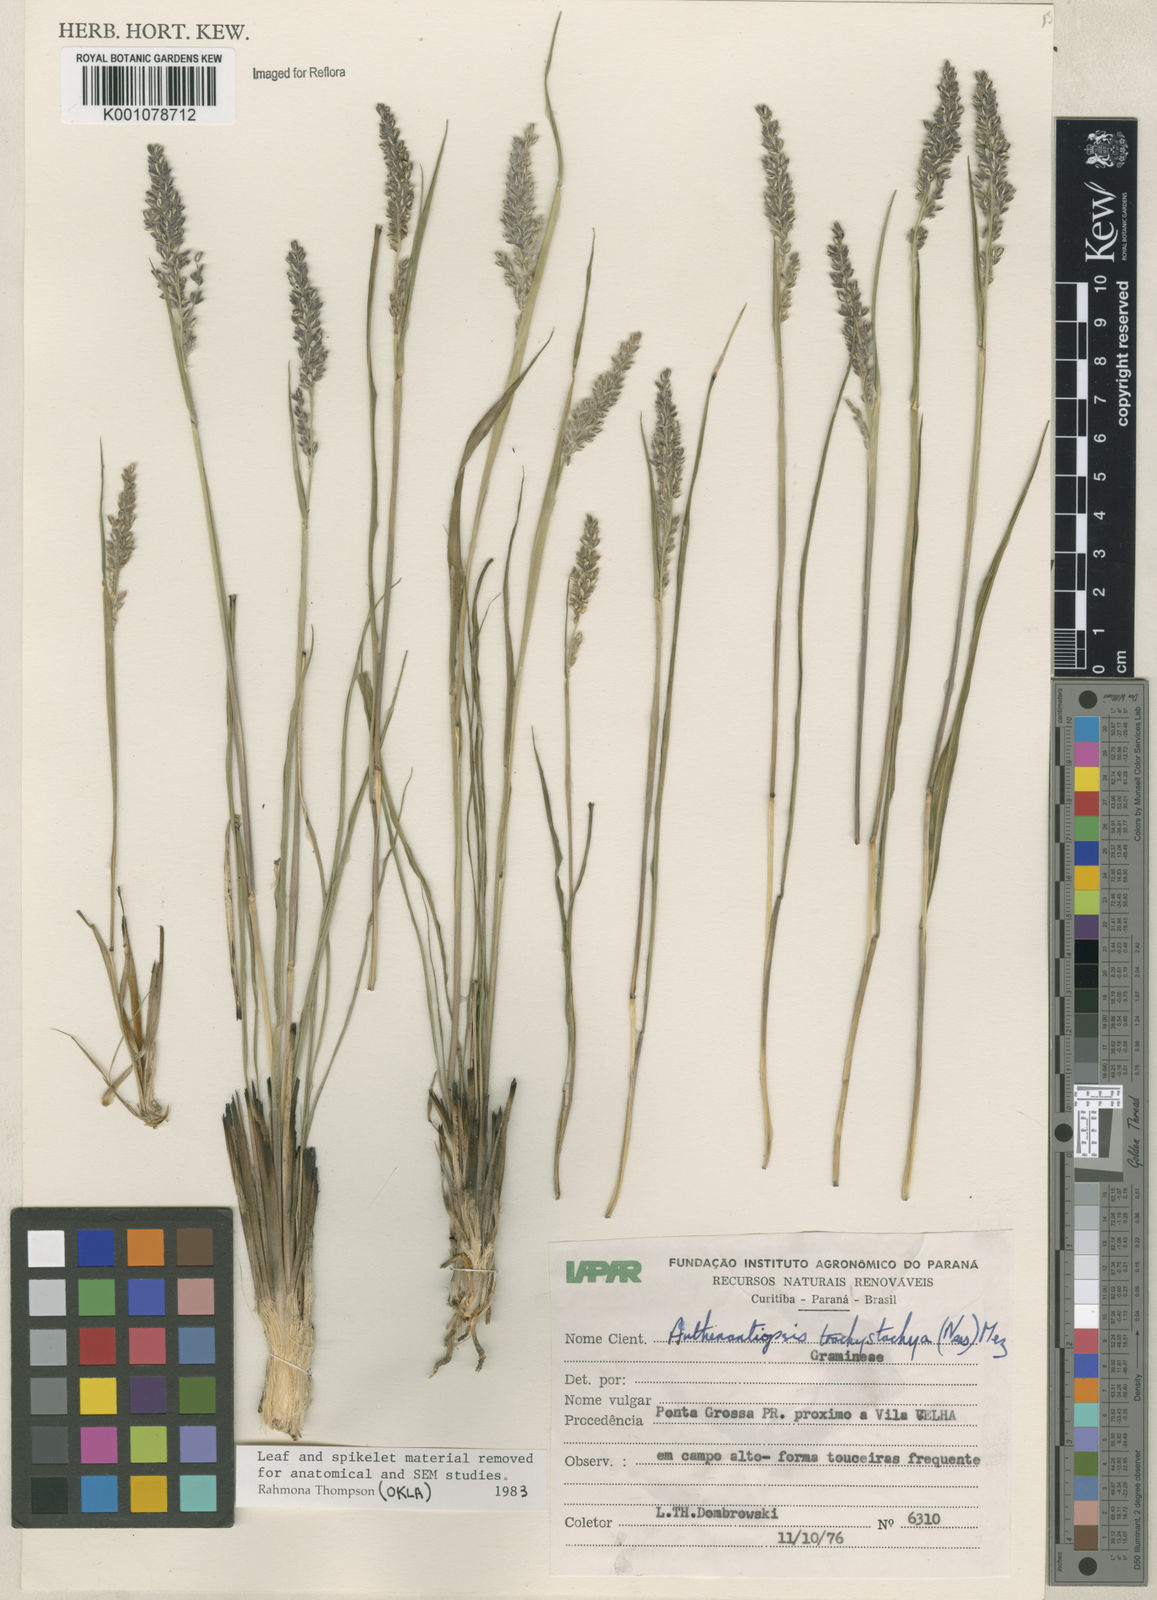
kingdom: Plantae
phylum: Tracheophyta
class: Liliopsida
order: Poales
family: Poaceae
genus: Anthaenantiopsis
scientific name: Anthaenantiopsis perforata
